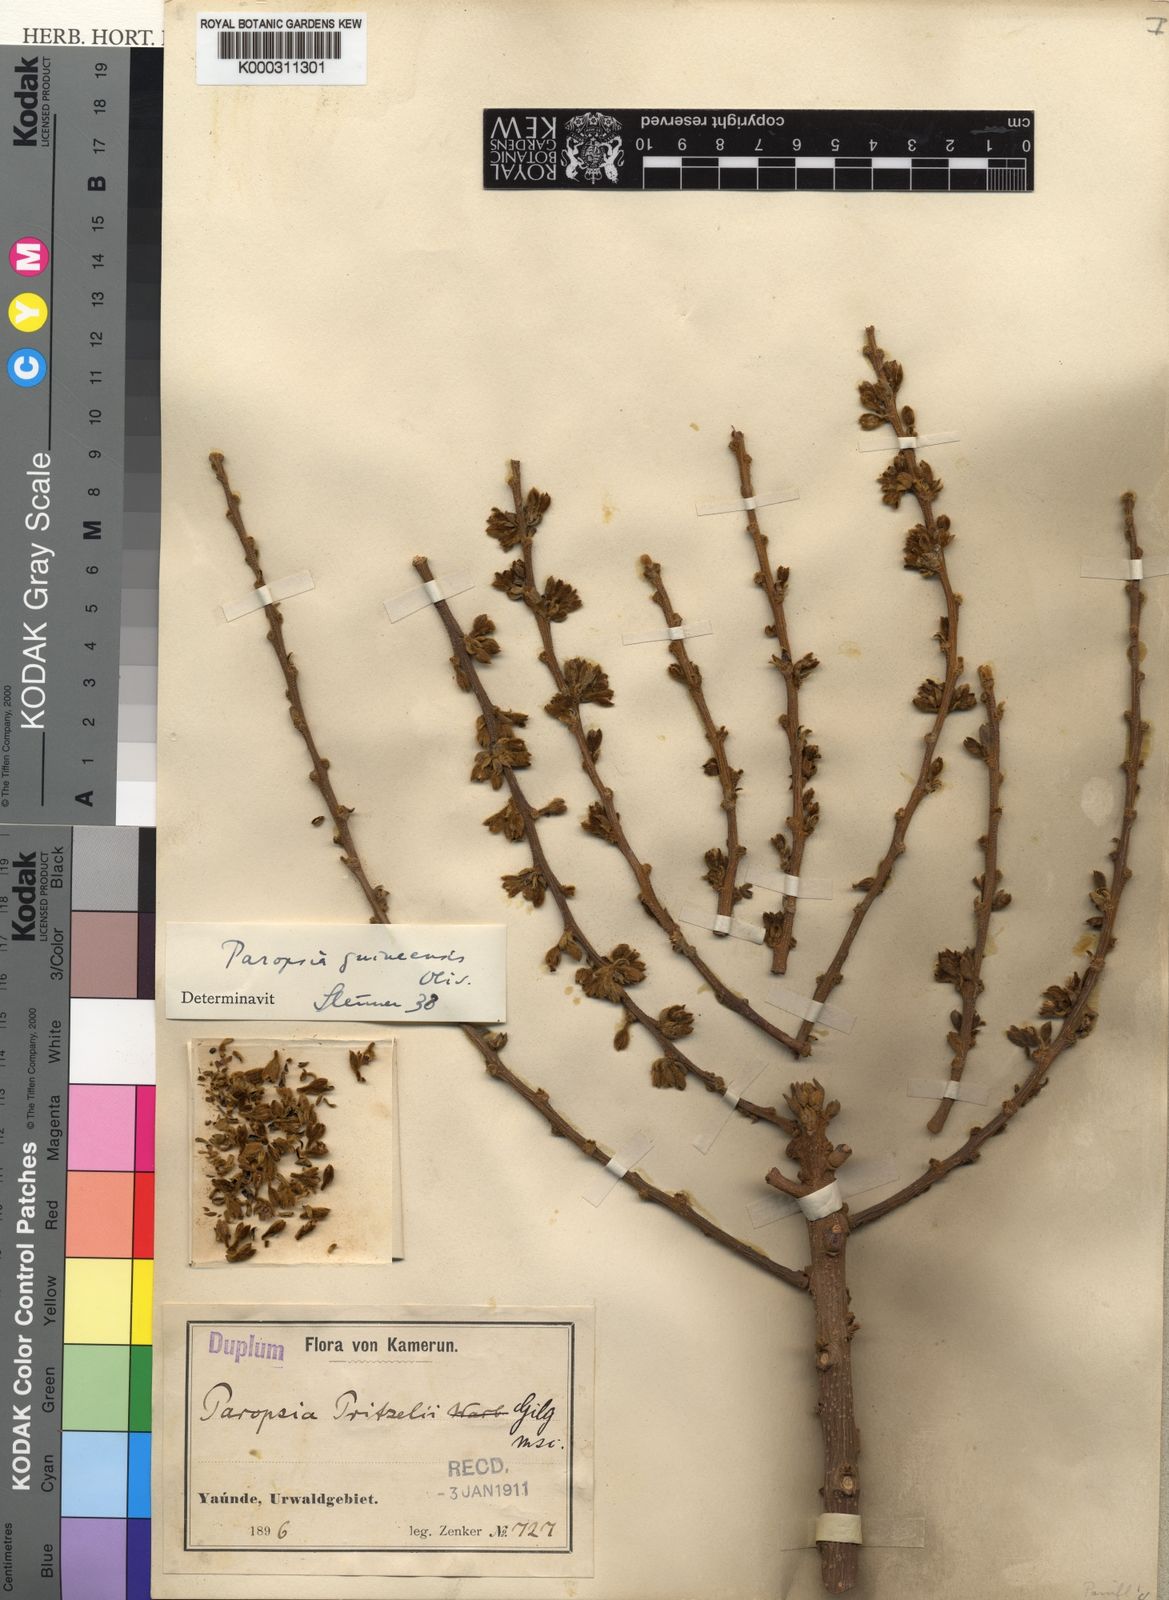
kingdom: Plantae
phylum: Tracheophyta
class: Magnoliopsida
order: Malpighiales
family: Passifloraceae
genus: Paropsia
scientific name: Paropsia guineensis
